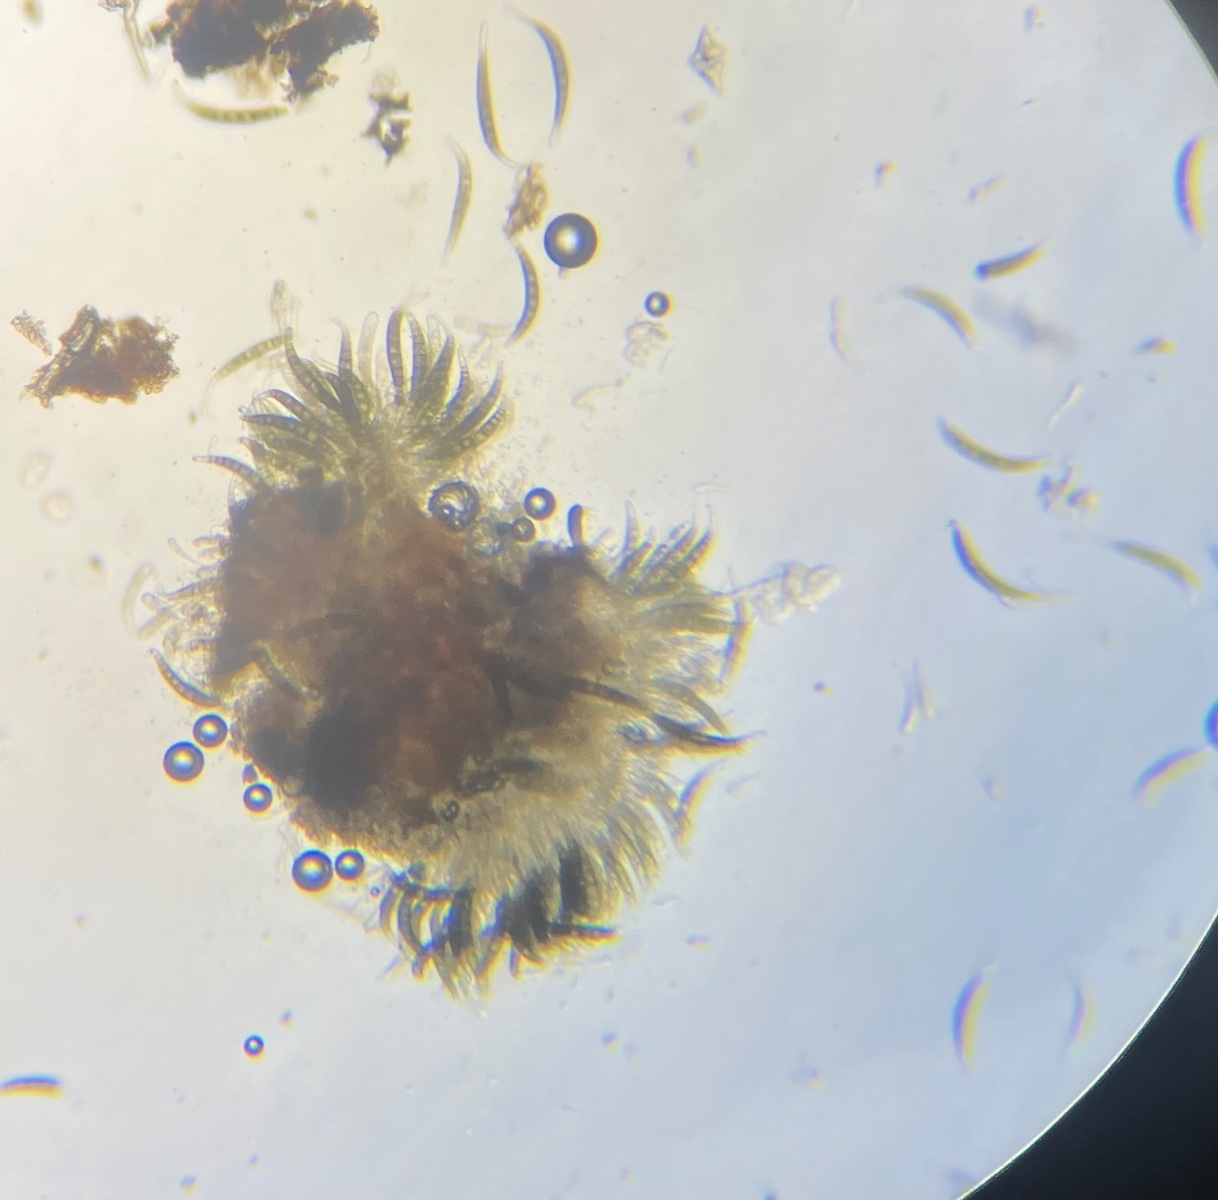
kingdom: Fungi
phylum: Ascomycota
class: Dothideomycetes
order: Pleosporales
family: Pleomassariaceae
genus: Asteromassaria
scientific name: Asteromassaria macrospora
